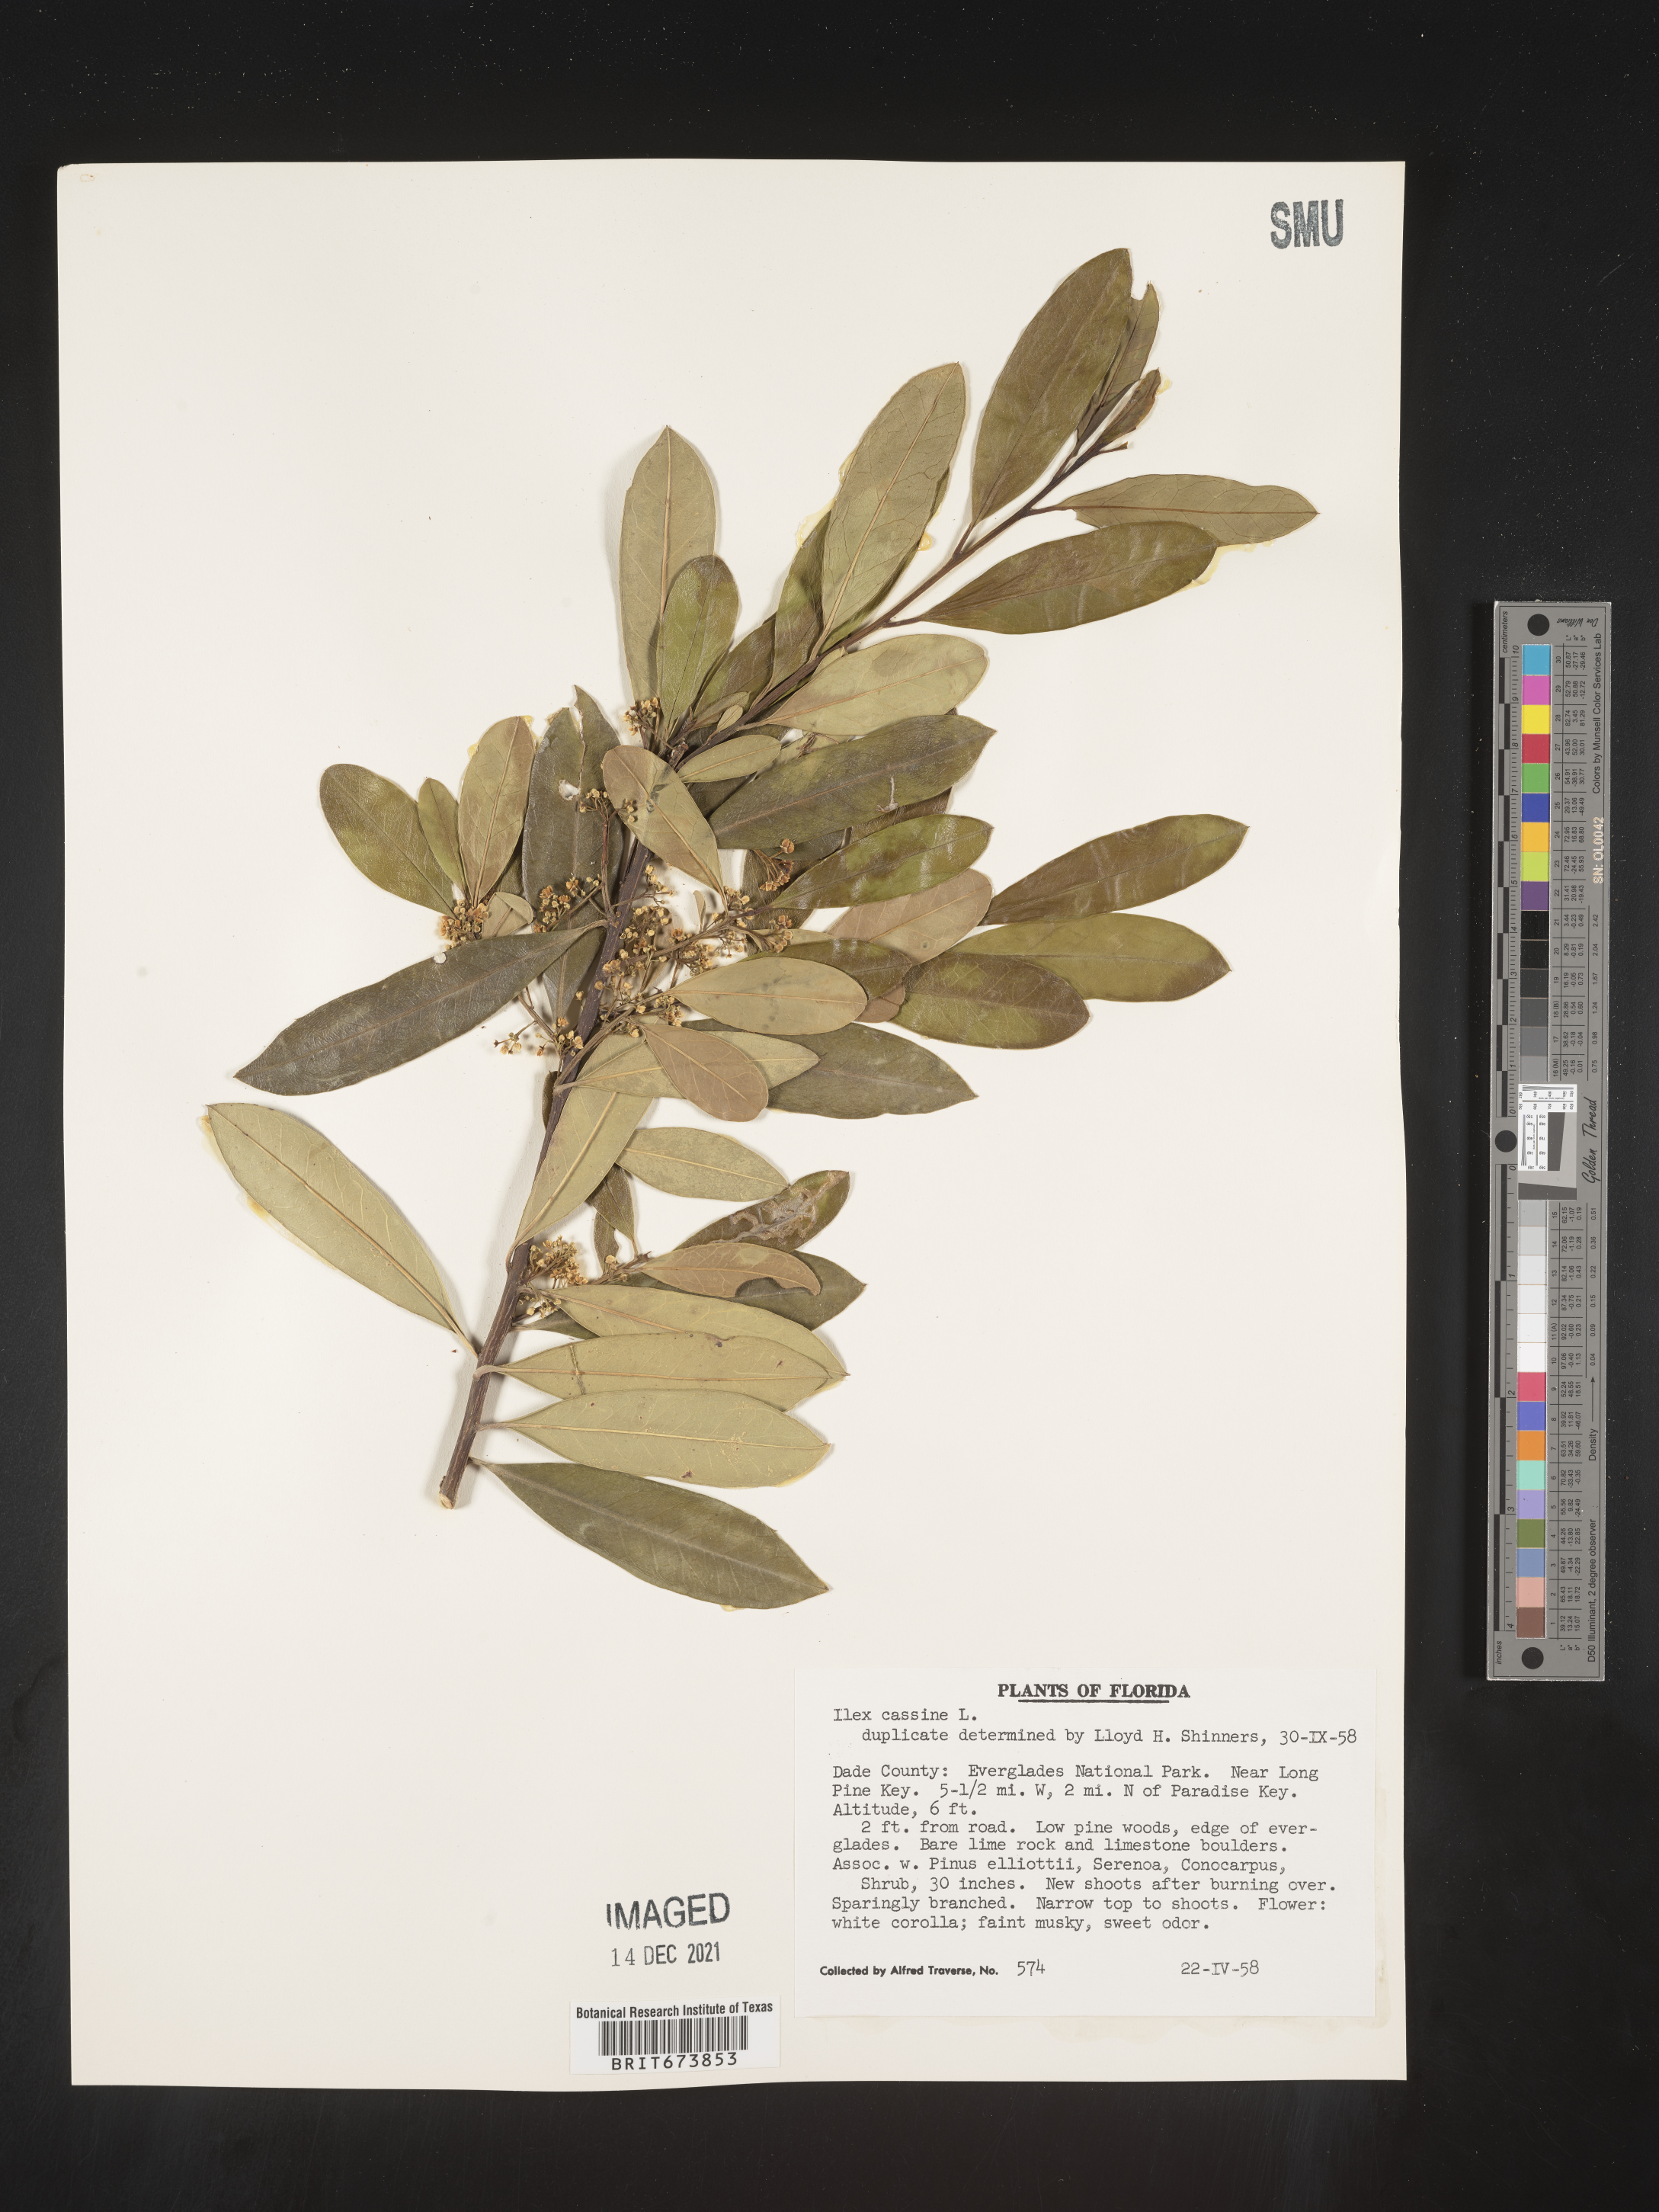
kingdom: Plantae
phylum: Tracheophyta
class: Magnoliopsida
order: Aquifoliales
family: Aquifoliaceae
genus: Ilex
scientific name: Ilex myrtifolia
